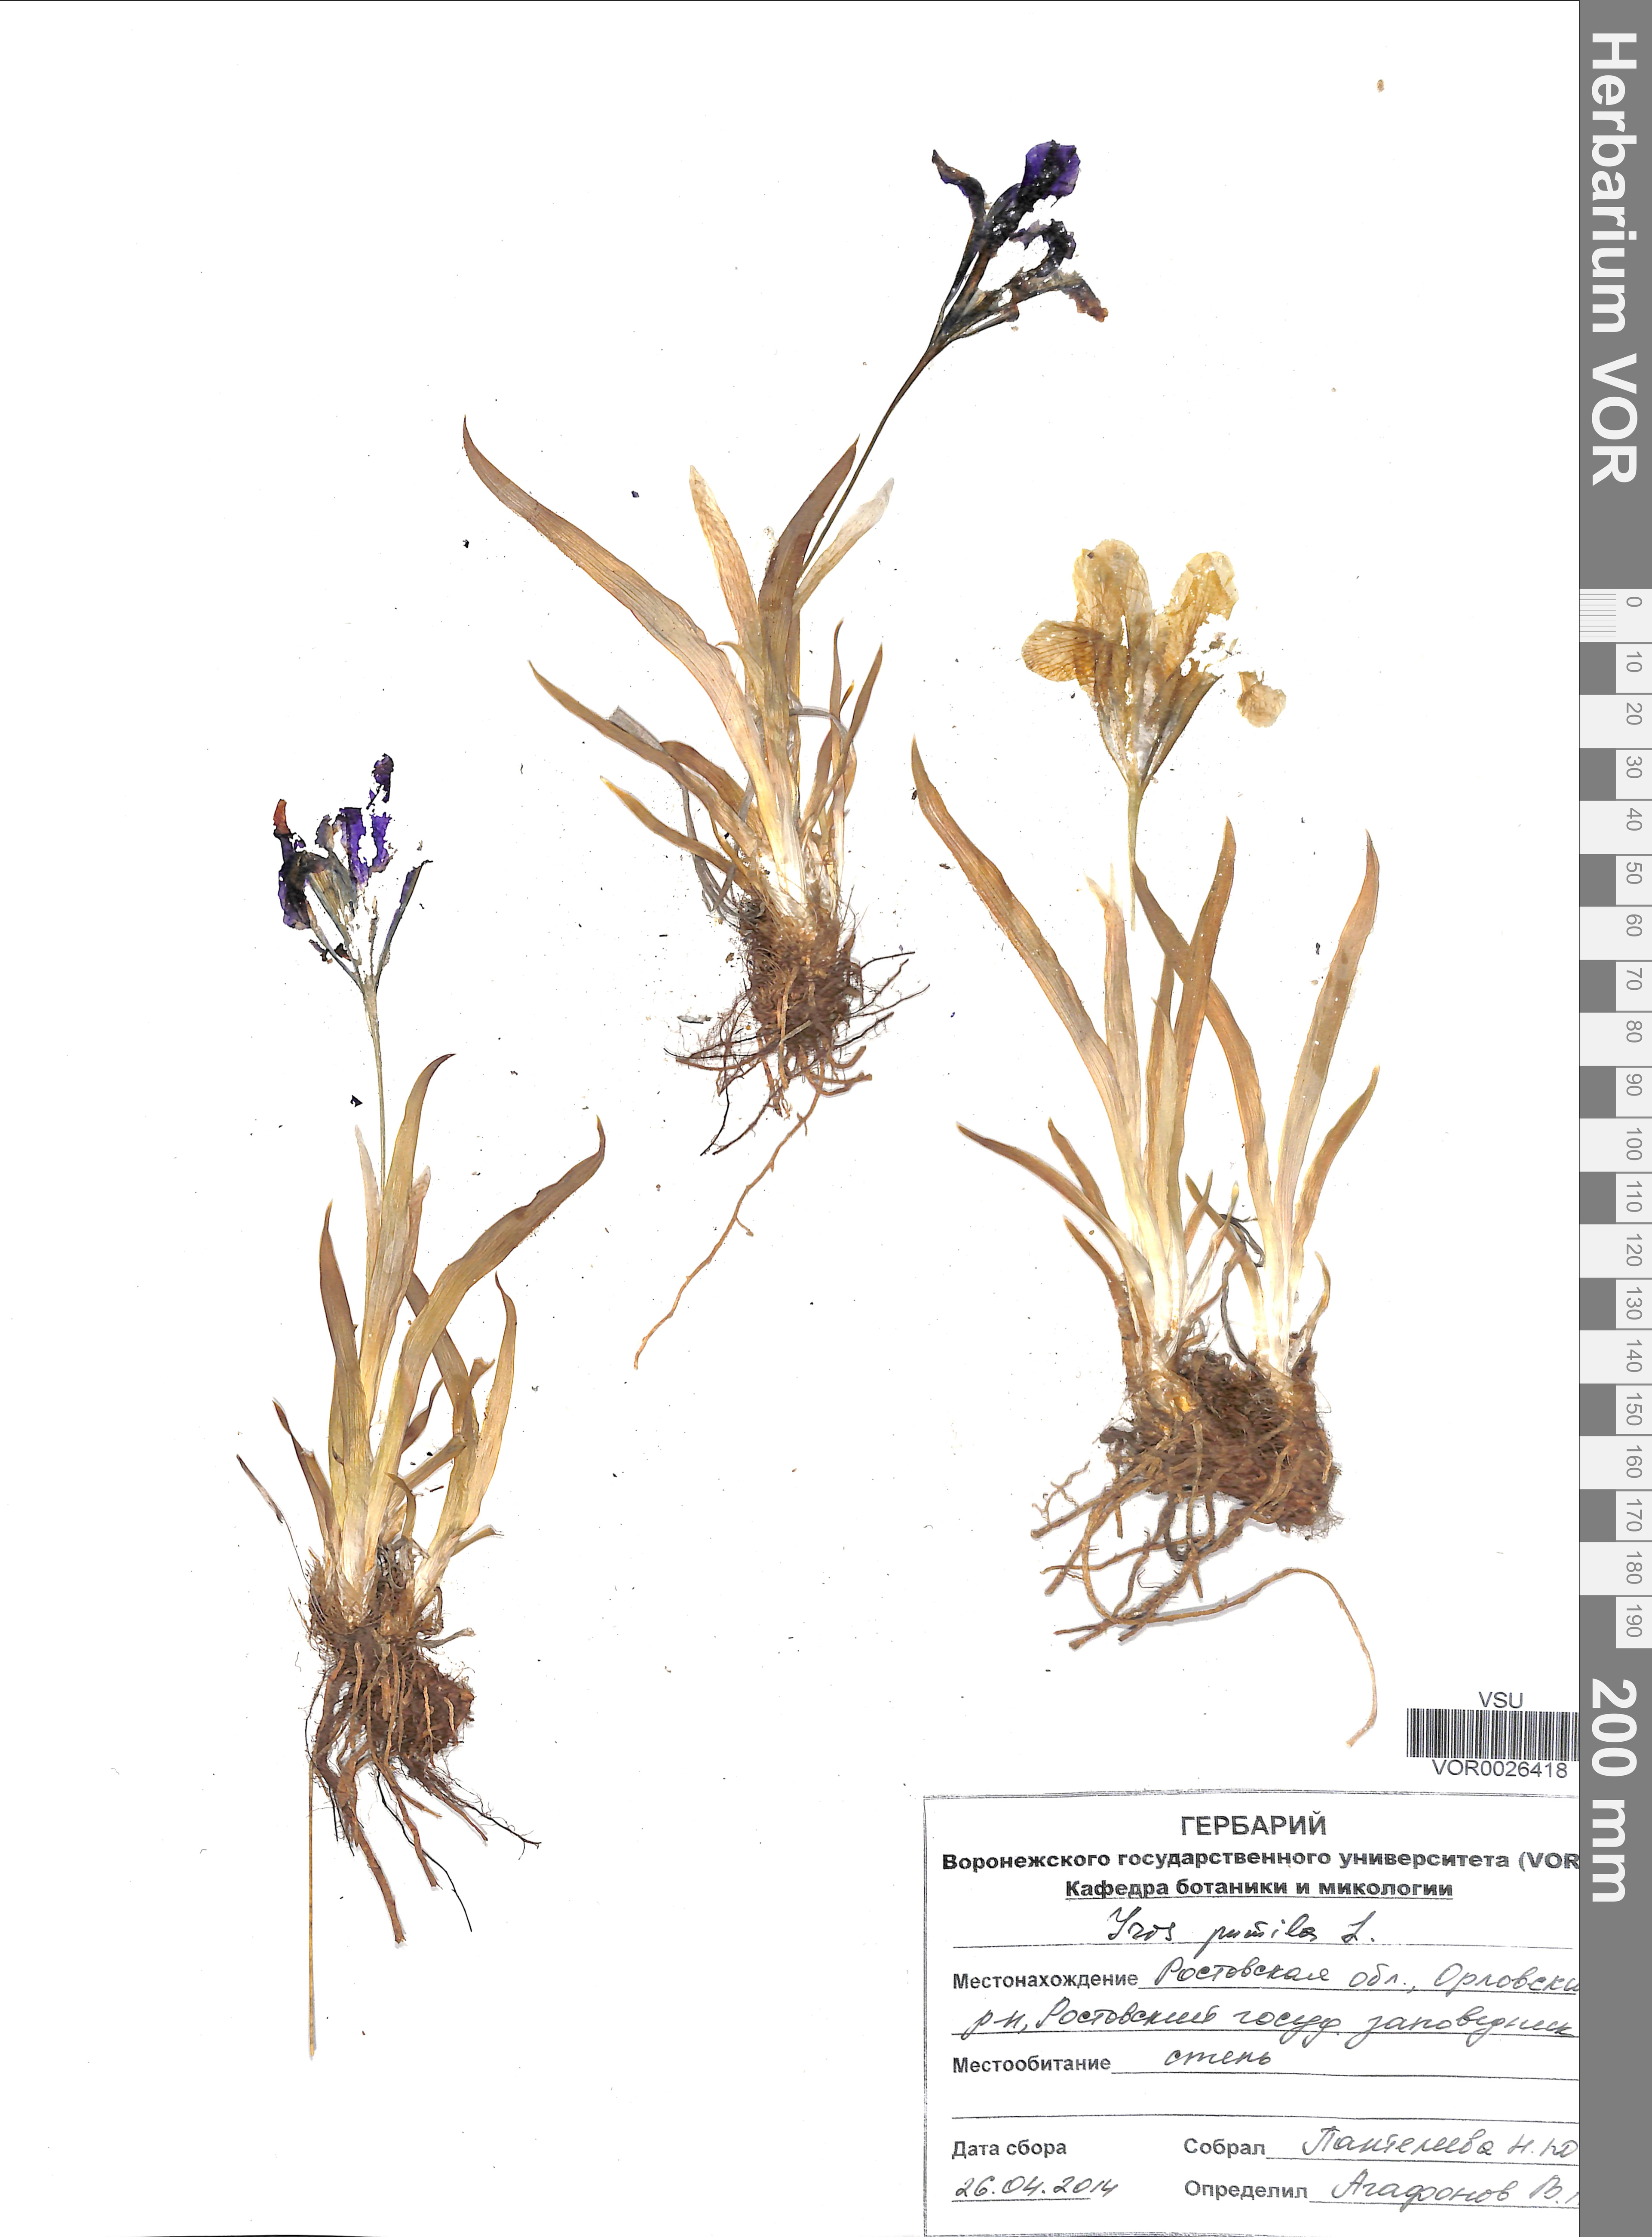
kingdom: Plantae
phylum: Tracheophyta
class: Liliopsida
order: Asparagales
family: Iridaceae
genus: Iris
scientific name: Iris pseudacorus
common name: Yellow flag
